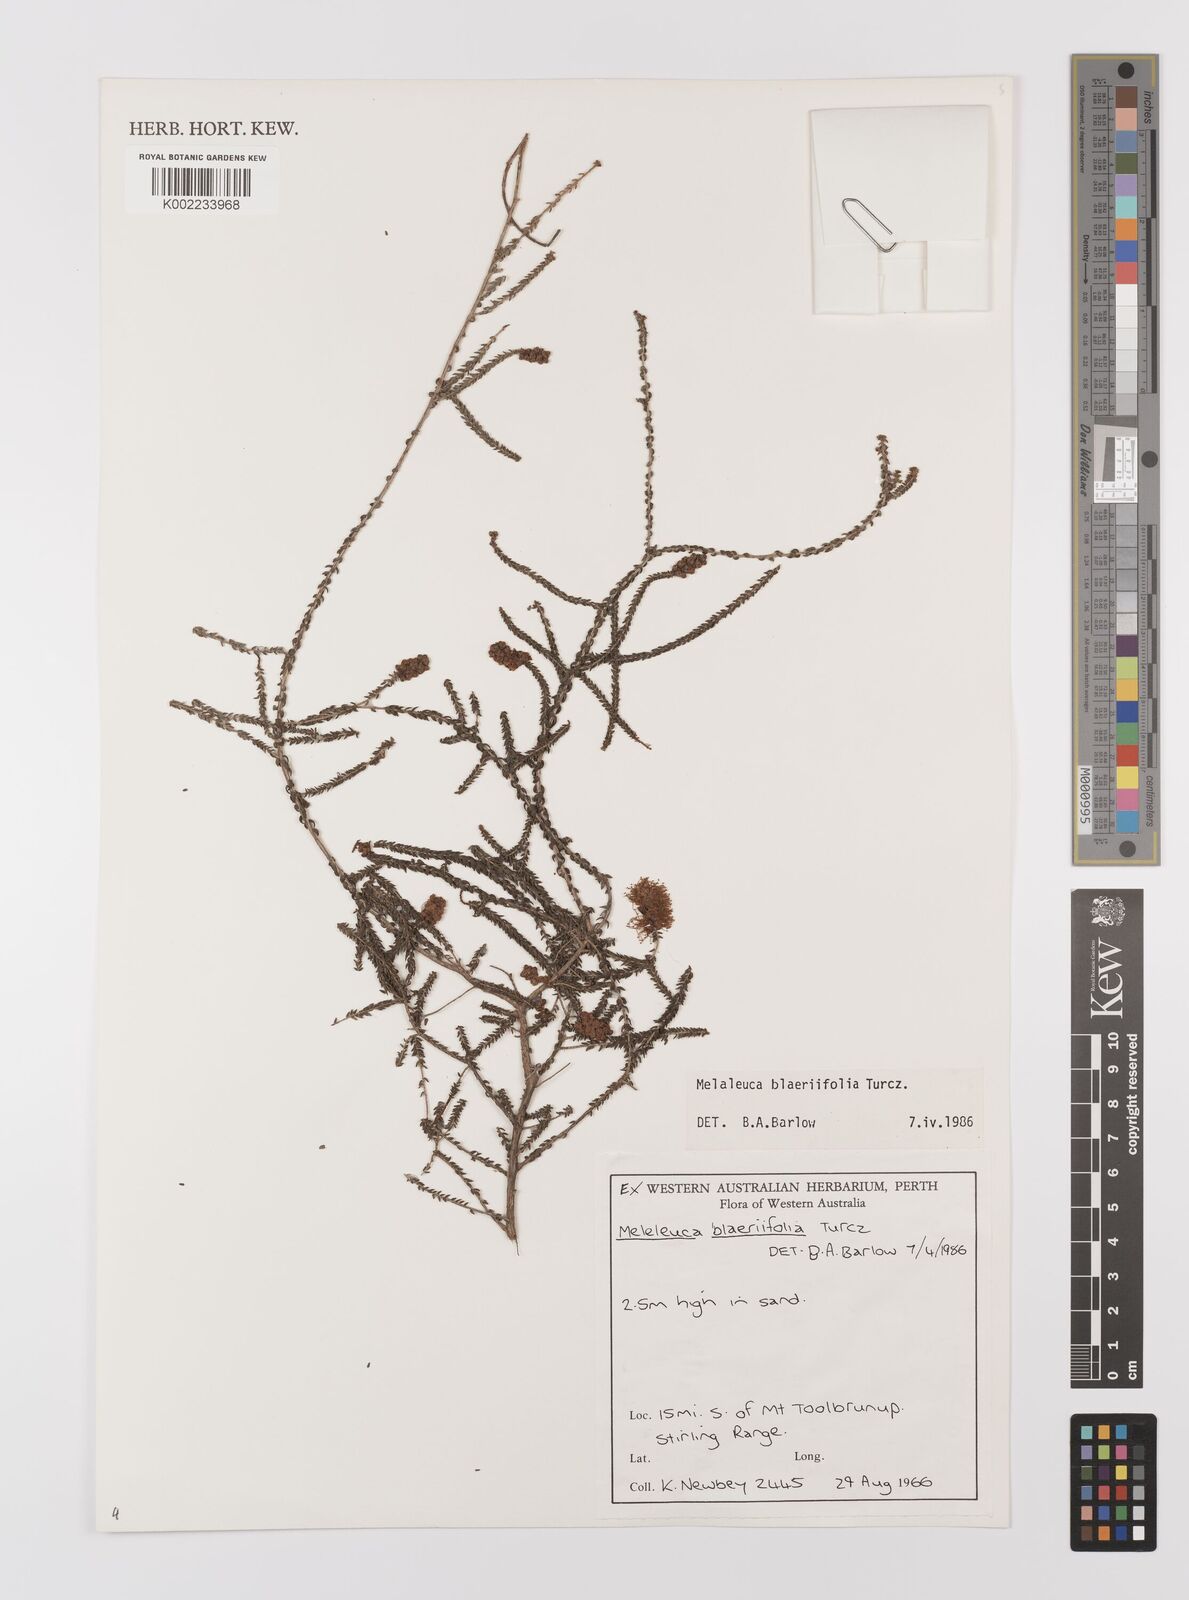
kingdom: Plantae
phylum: Tracheophyta
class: Magnoliopsida
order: Myrtales
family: Myrtaceae
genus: Melaleuca
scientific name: Melaleuca blaeriifolia
